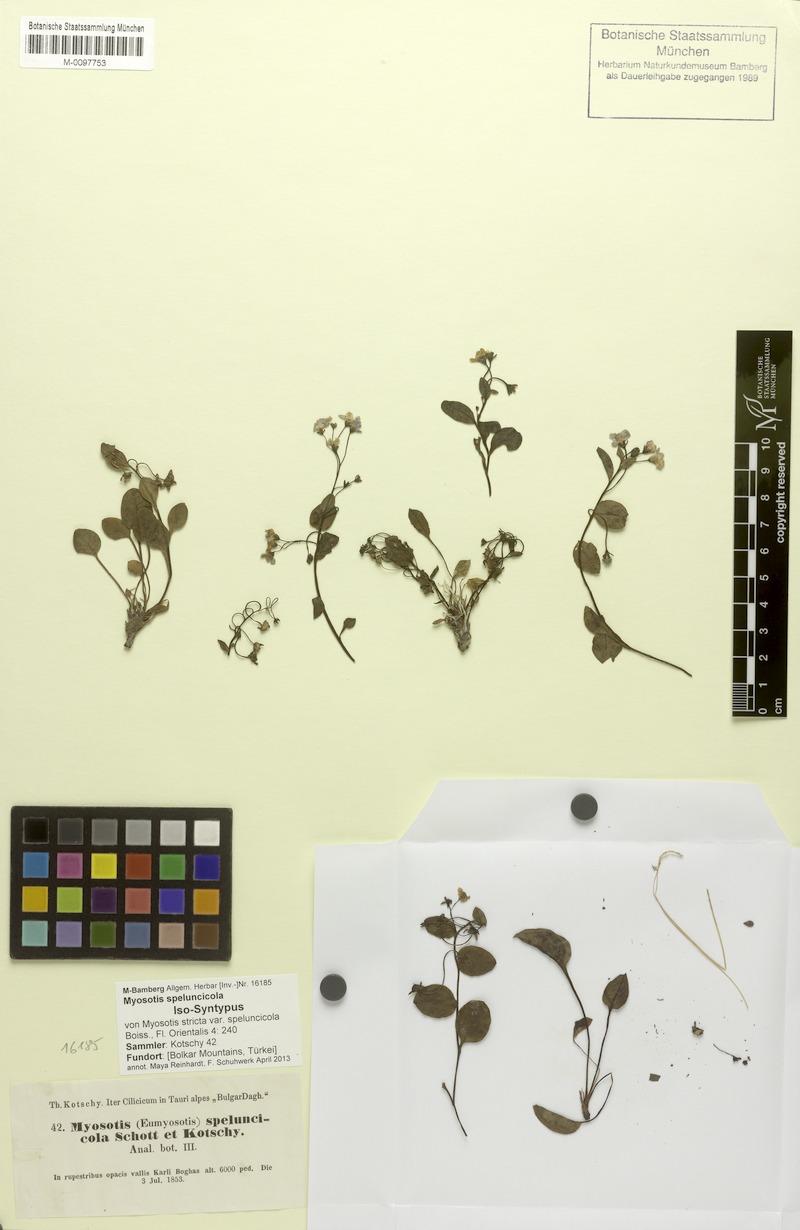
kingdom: Plantae
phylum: Tracheophyta
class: Magnoliopsida
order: Boraginales
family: Boraginaceae
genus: Myosotis
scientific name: Myosotis speluncicola
